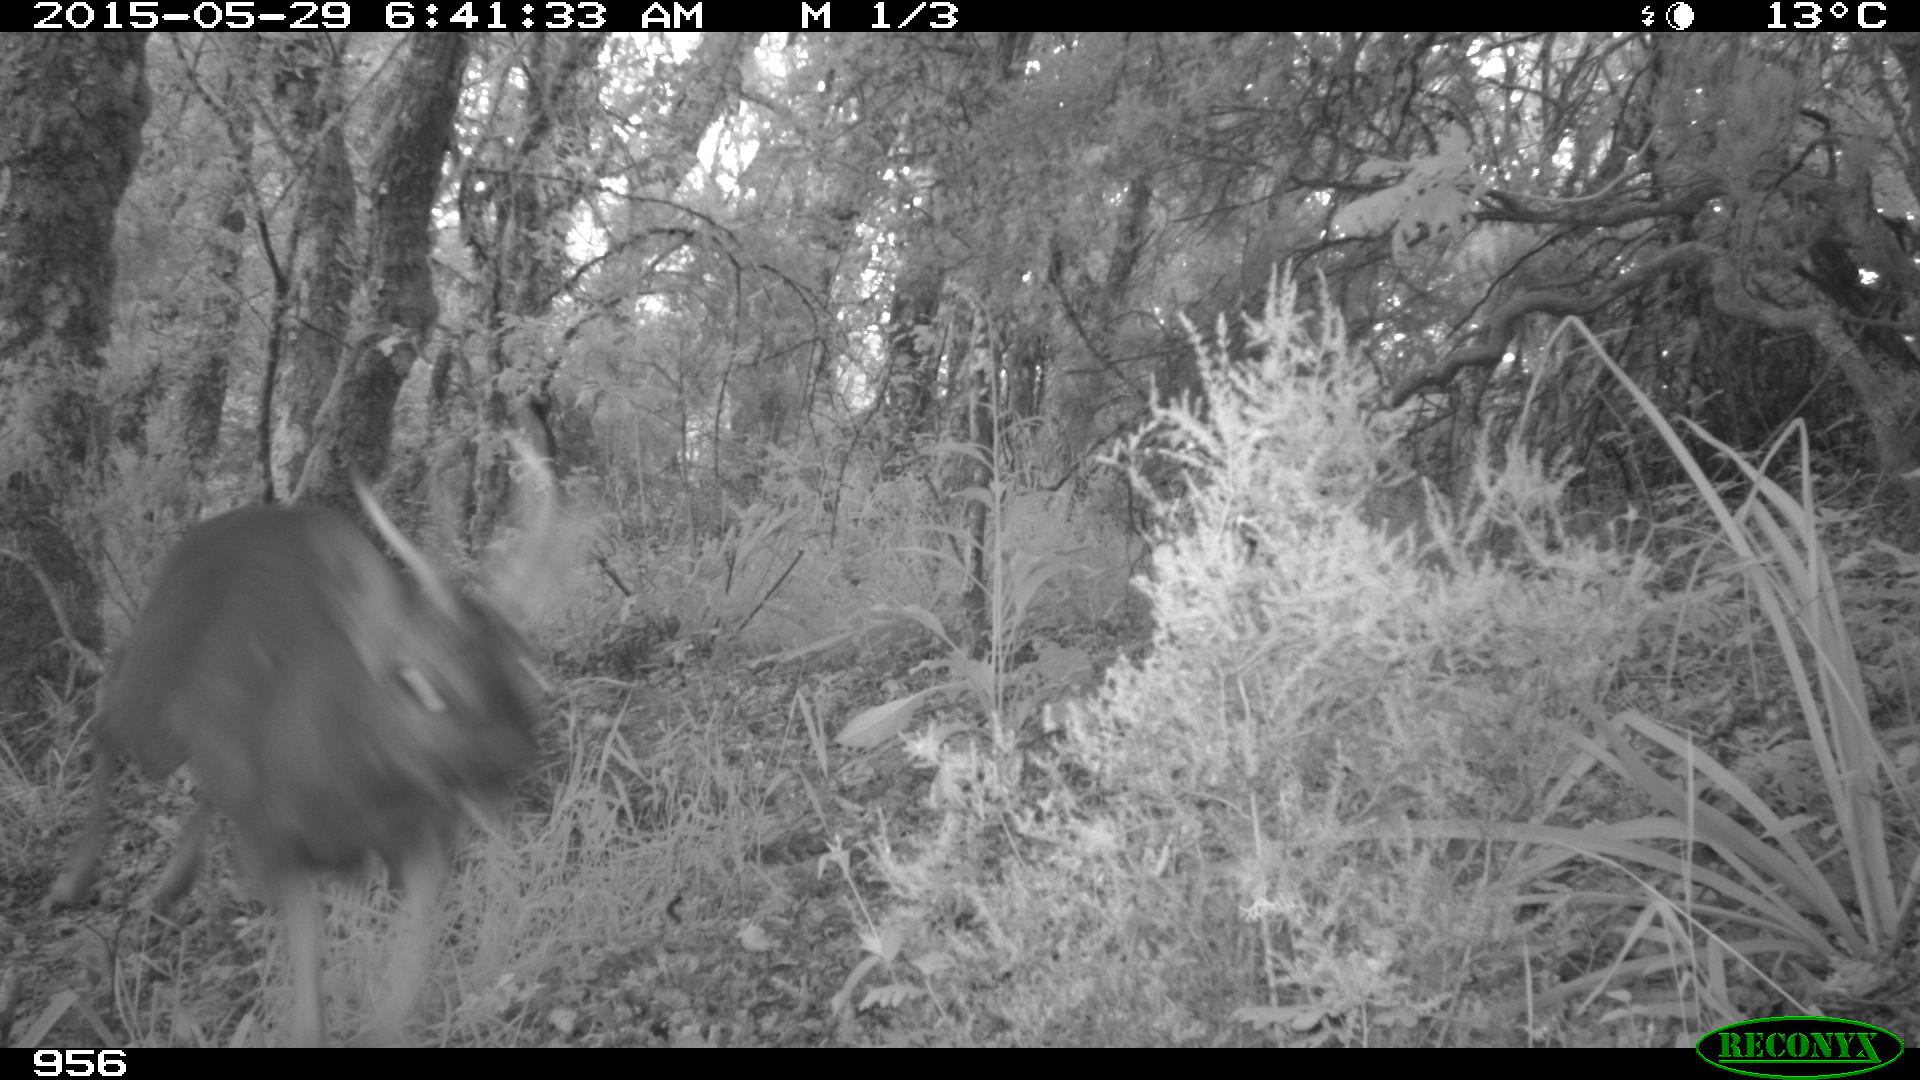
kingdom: Animalia
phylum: Chordata
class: Mammalia
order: Artiodactyla
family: Cervidae
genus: Capreolus
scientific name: Capreolus capreolus
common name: Western roe deer
